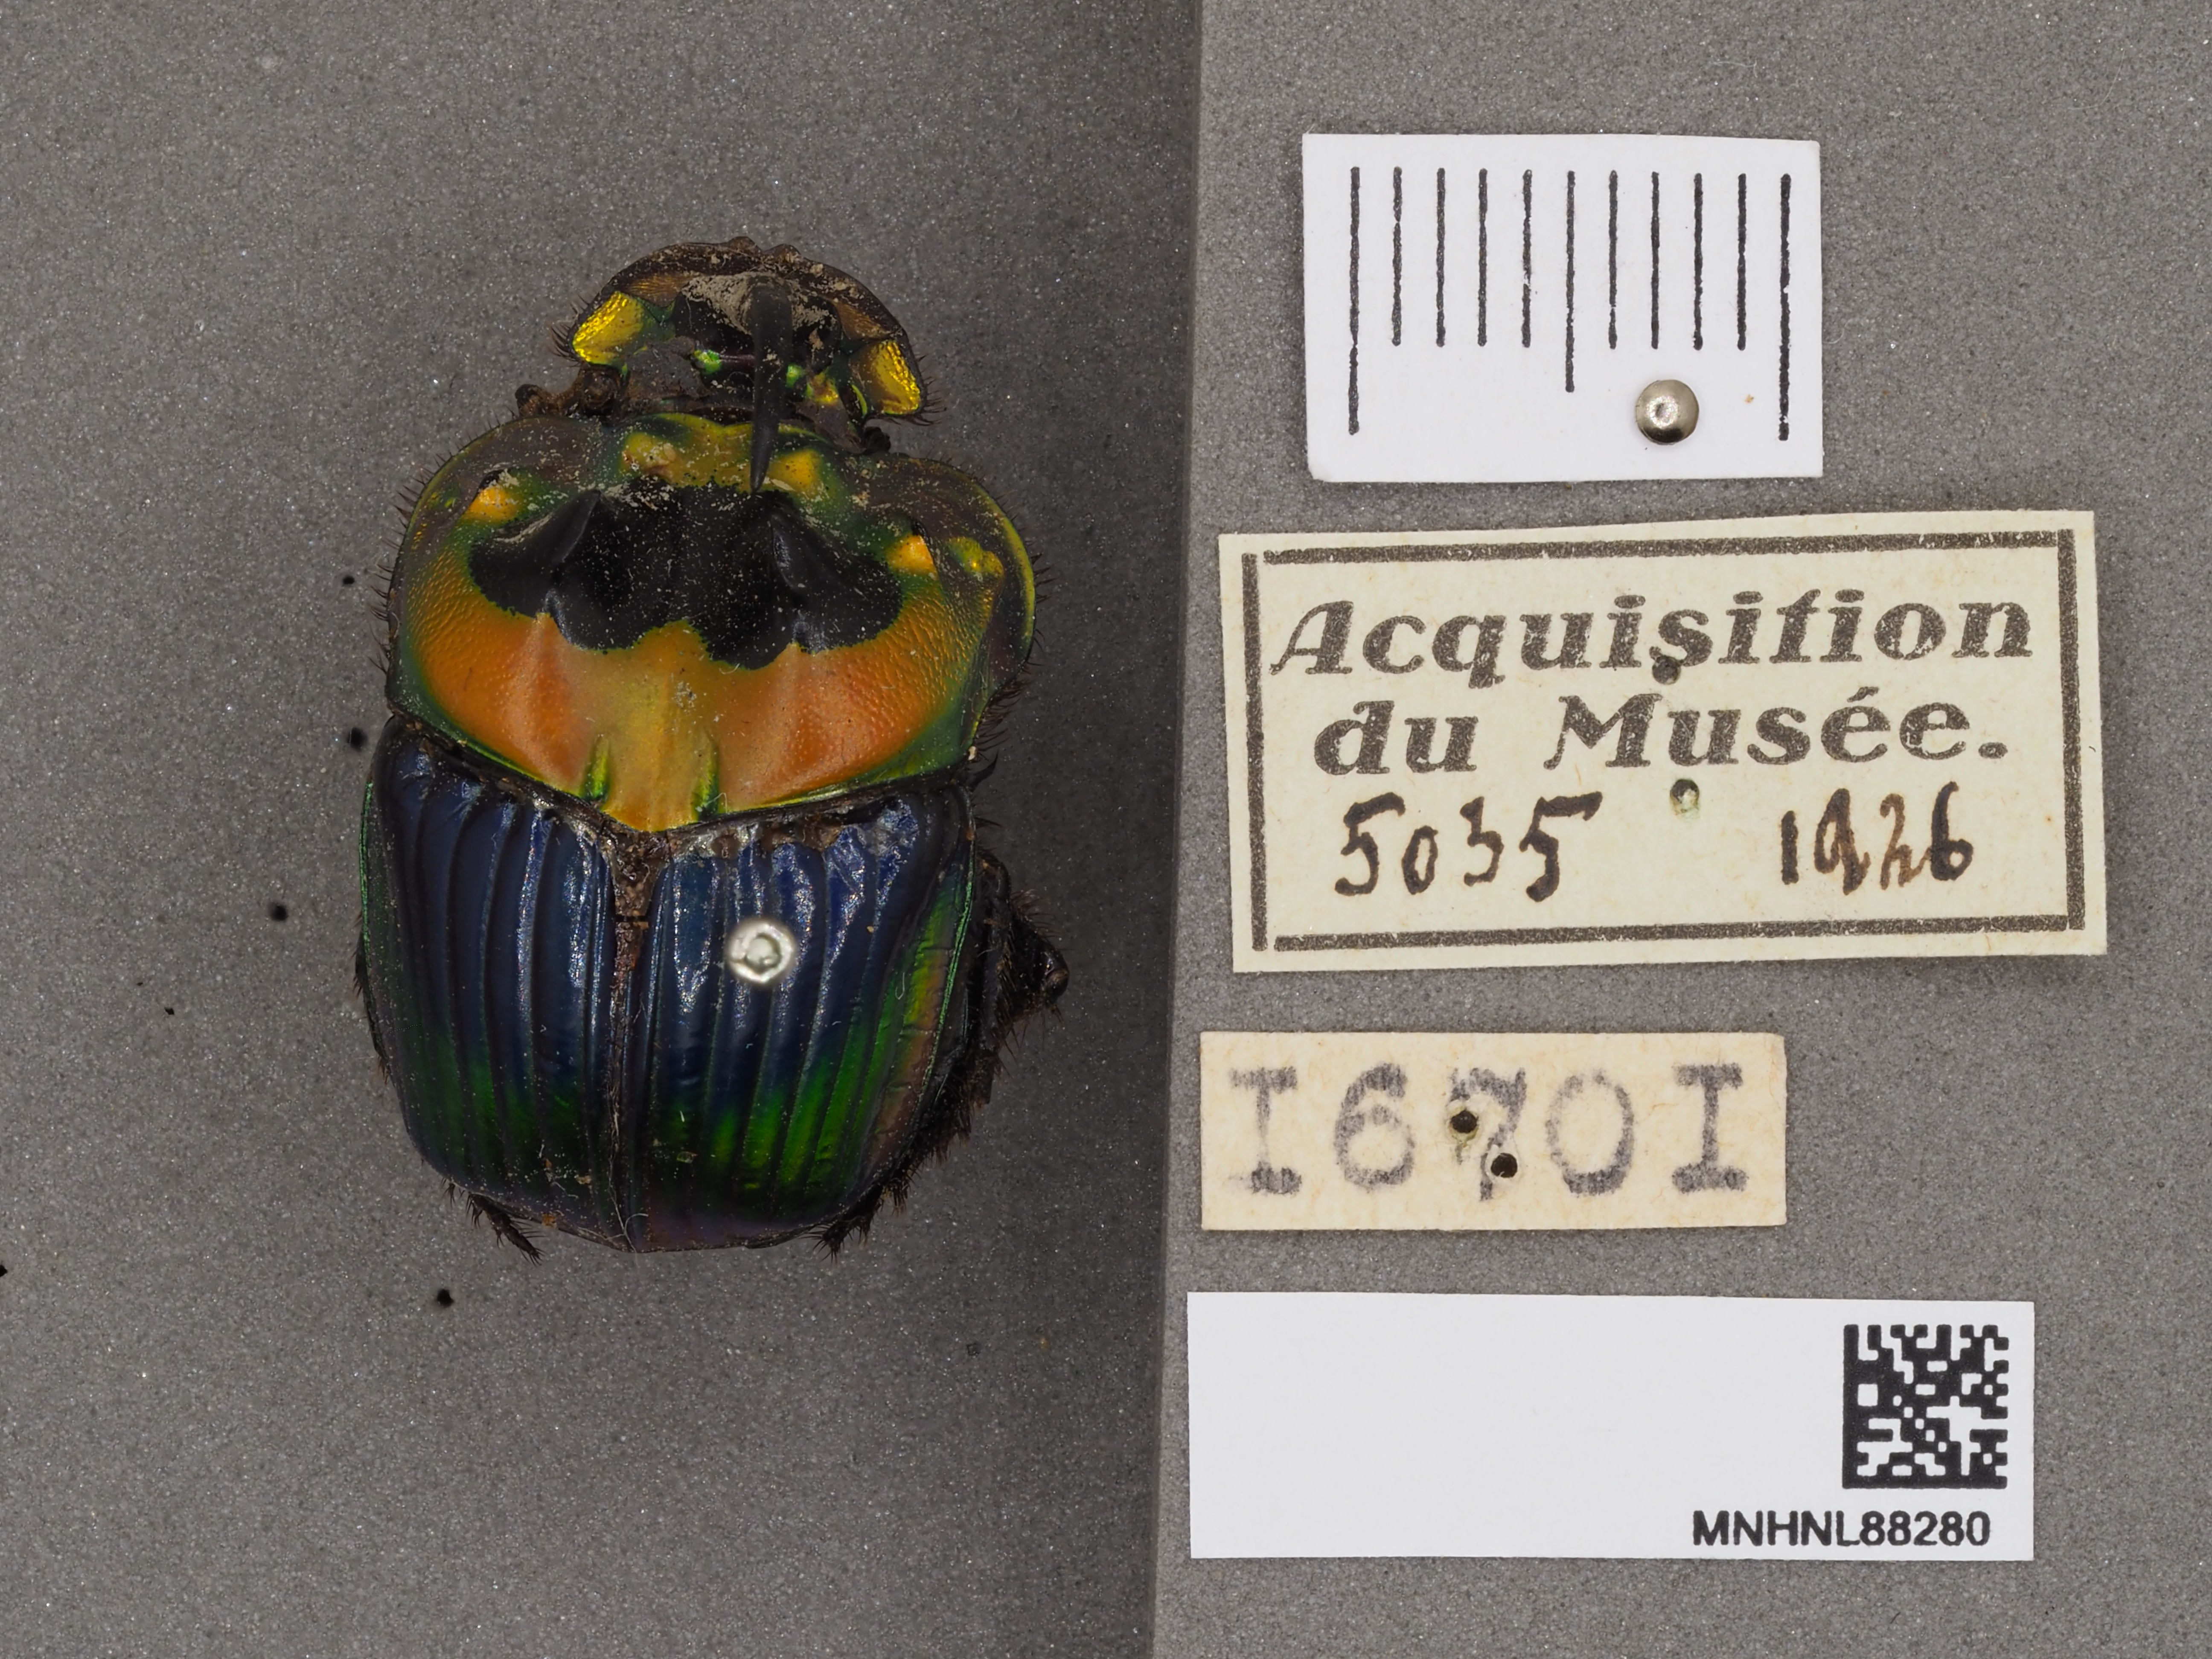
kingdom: Animalia
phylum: Arthropoda
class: Insecta
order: Coleoptera
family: Scarabaeidae
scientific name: Scarabaeidae
